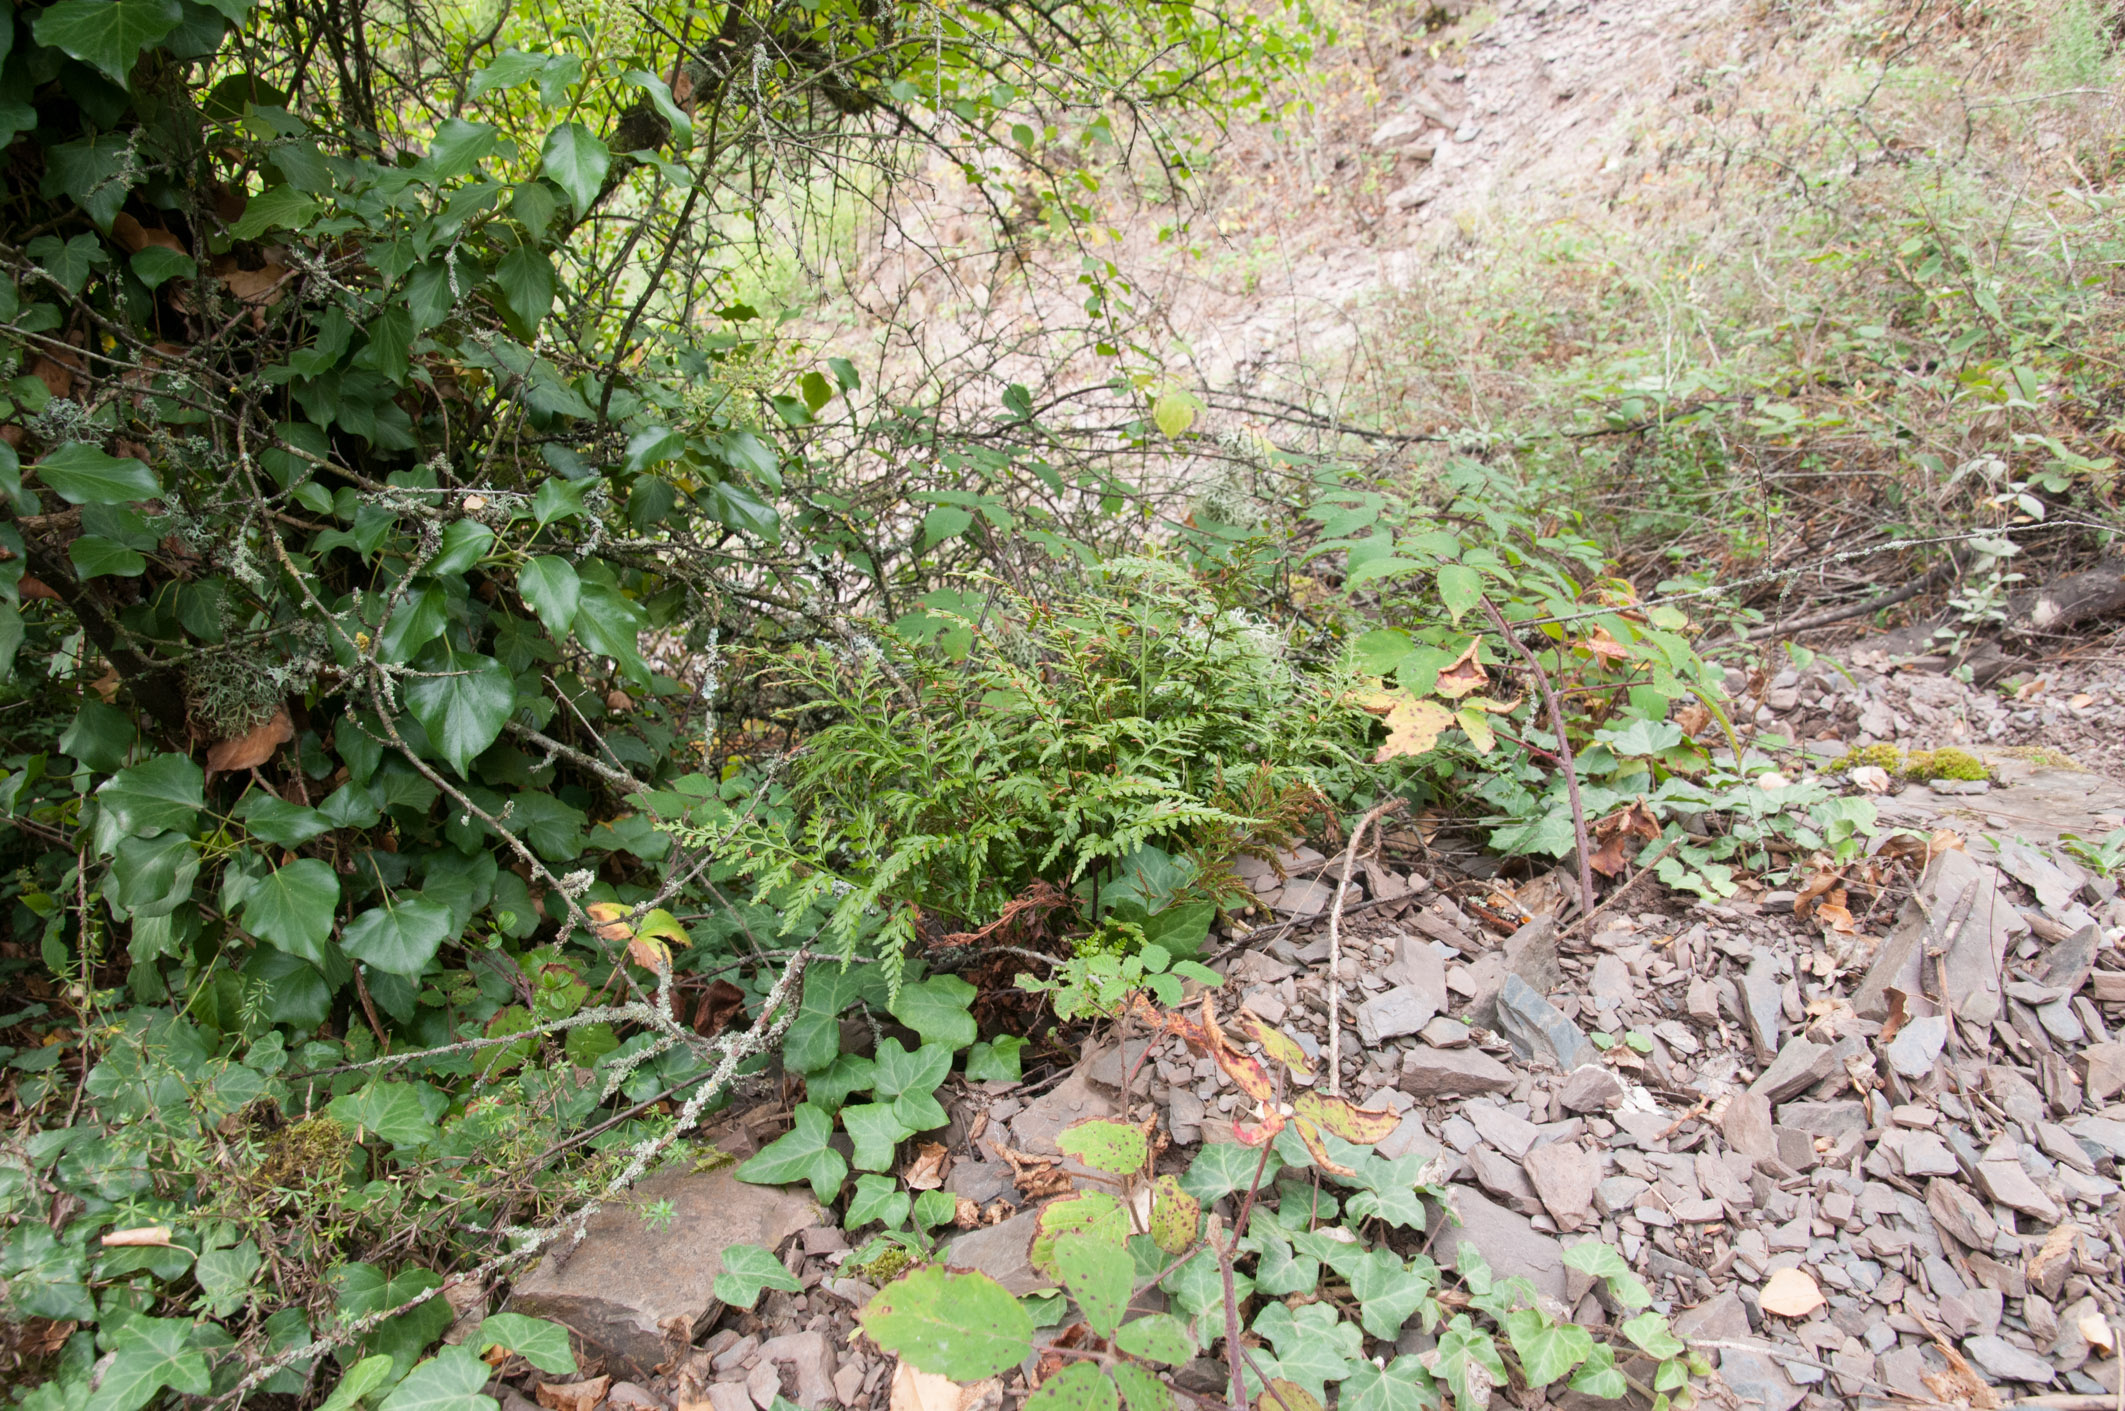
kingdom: Plantae
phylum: Tracheophyta
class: Polypodiopsida
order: Polypodiales
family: Aspleniaceae
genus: Asplenium
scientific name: Asplenium adiantum-nigrum
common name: Black spleenwort
